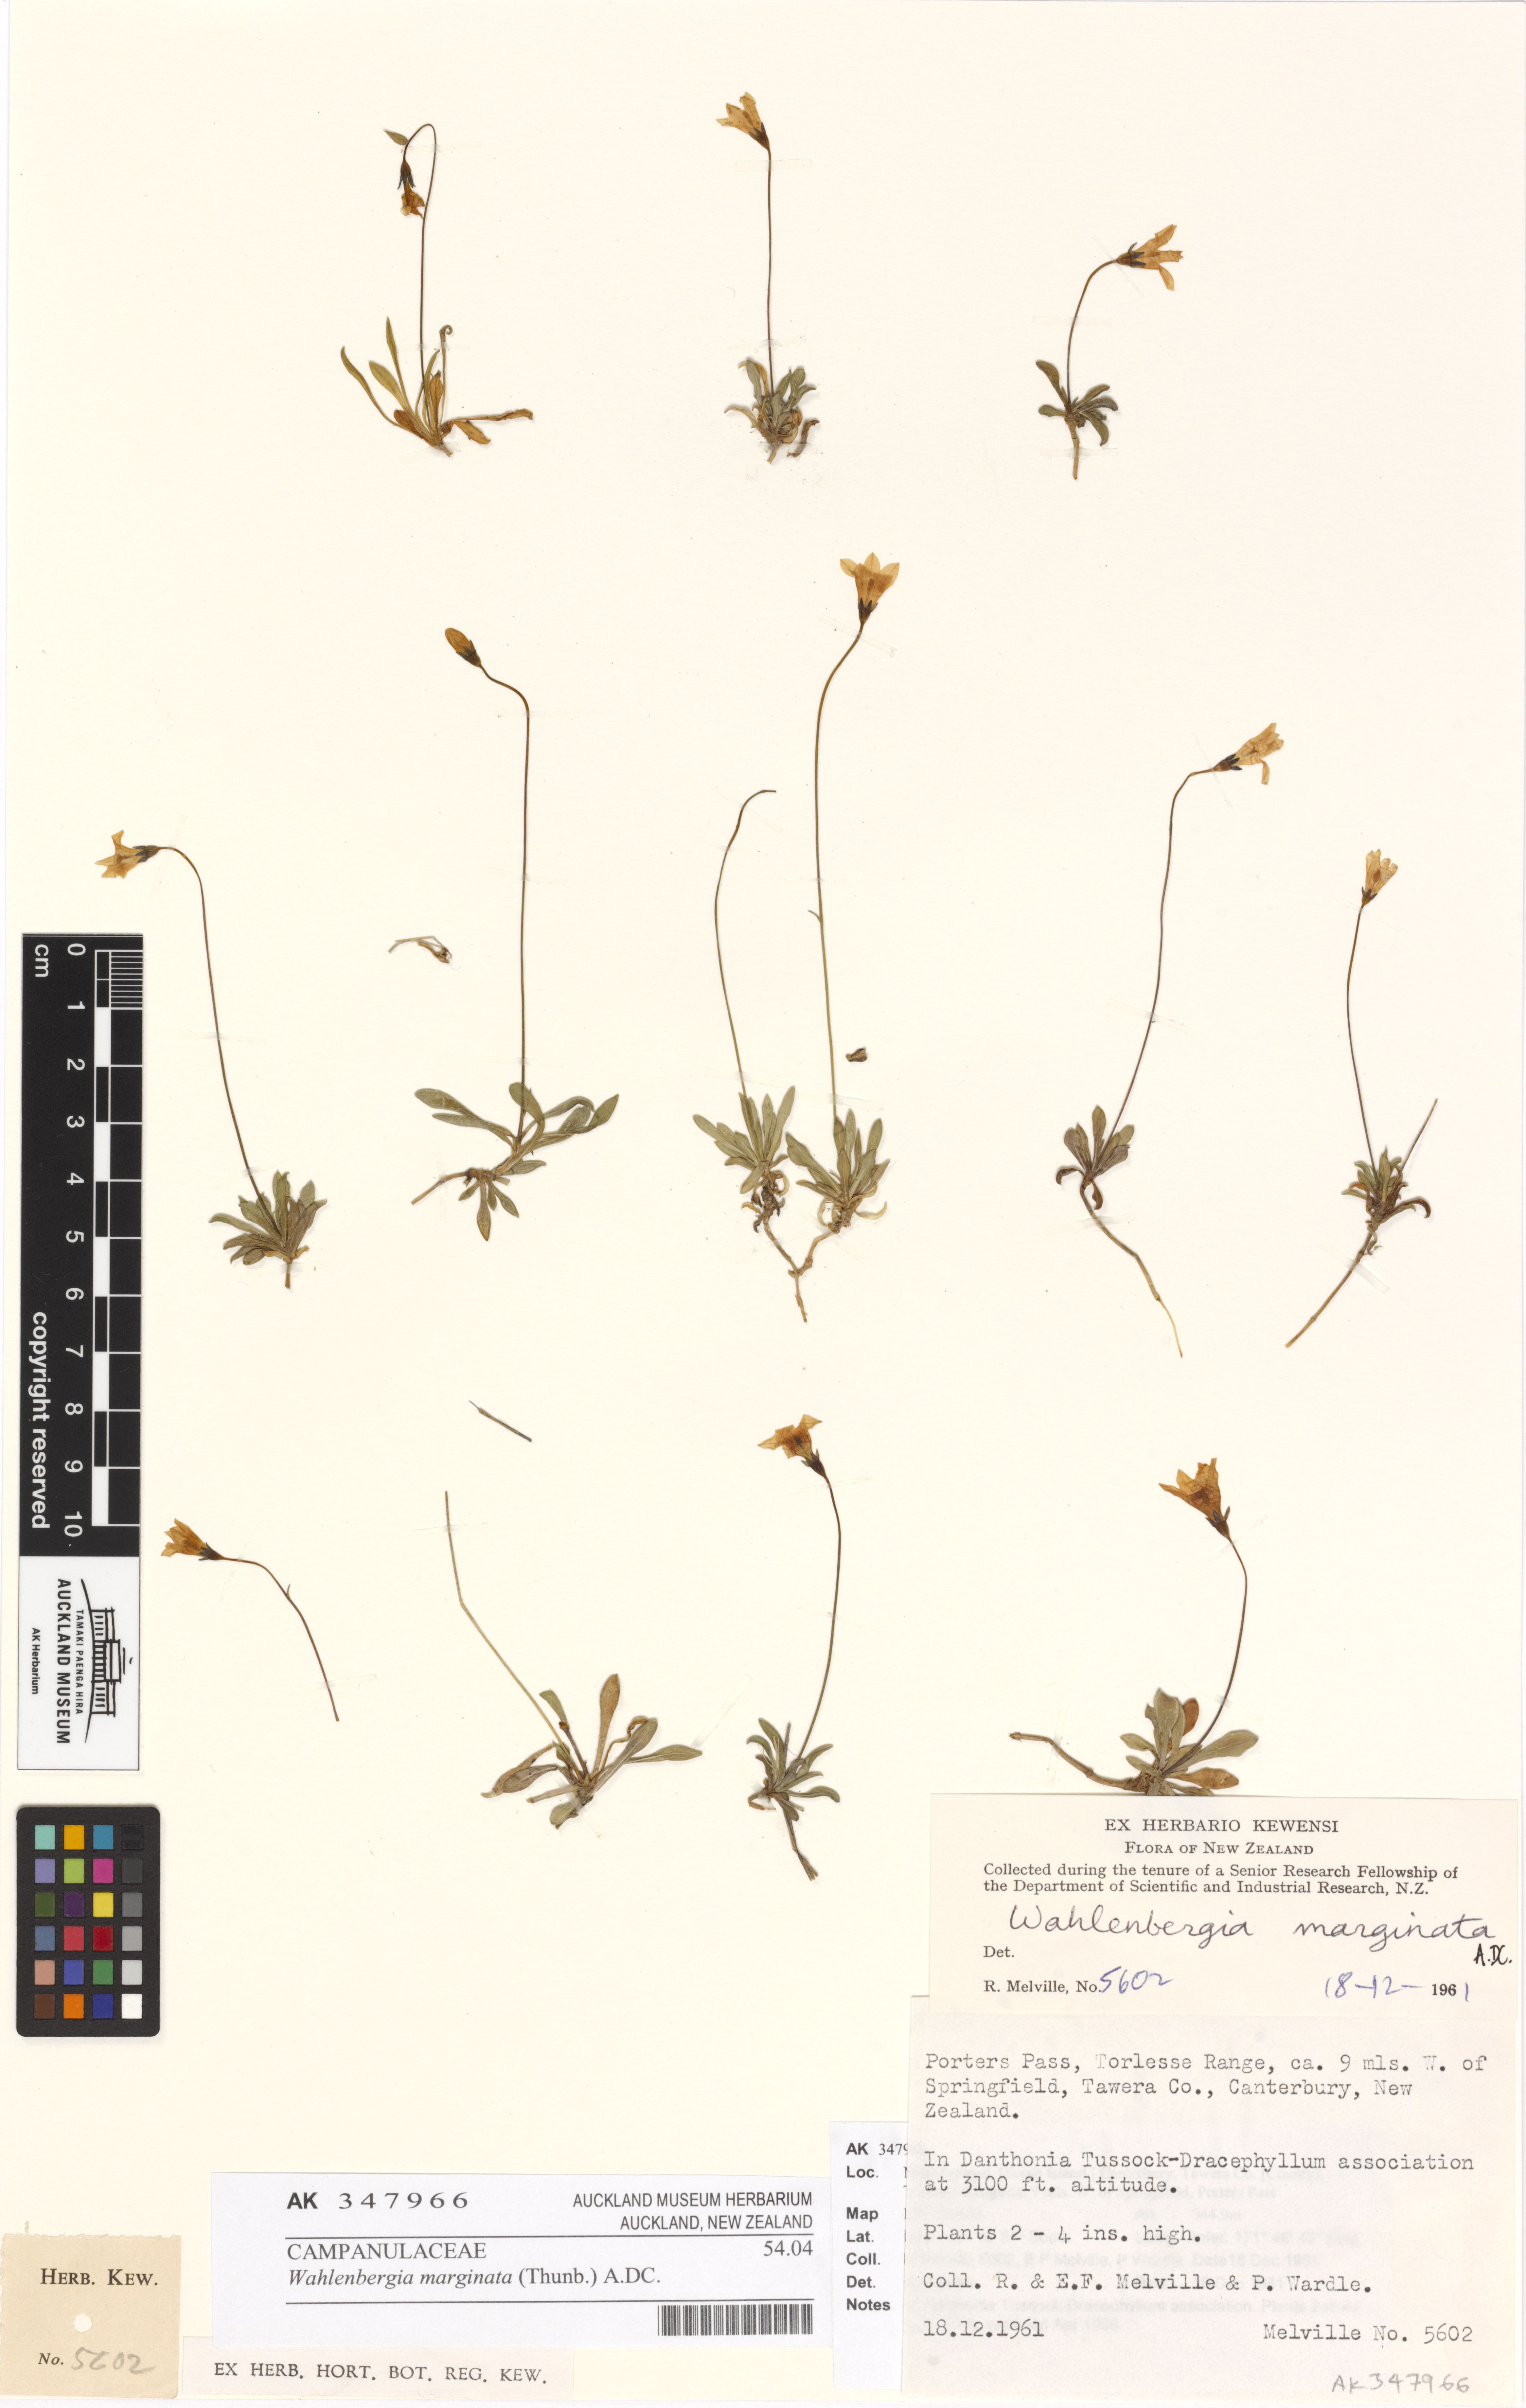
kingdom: Plantae
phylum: Tracheophyta
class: Magnoliopsida
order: Asterales
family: Campanulaceae
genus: Wahlenbergia
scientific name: Wahlenbergia albomarginata
